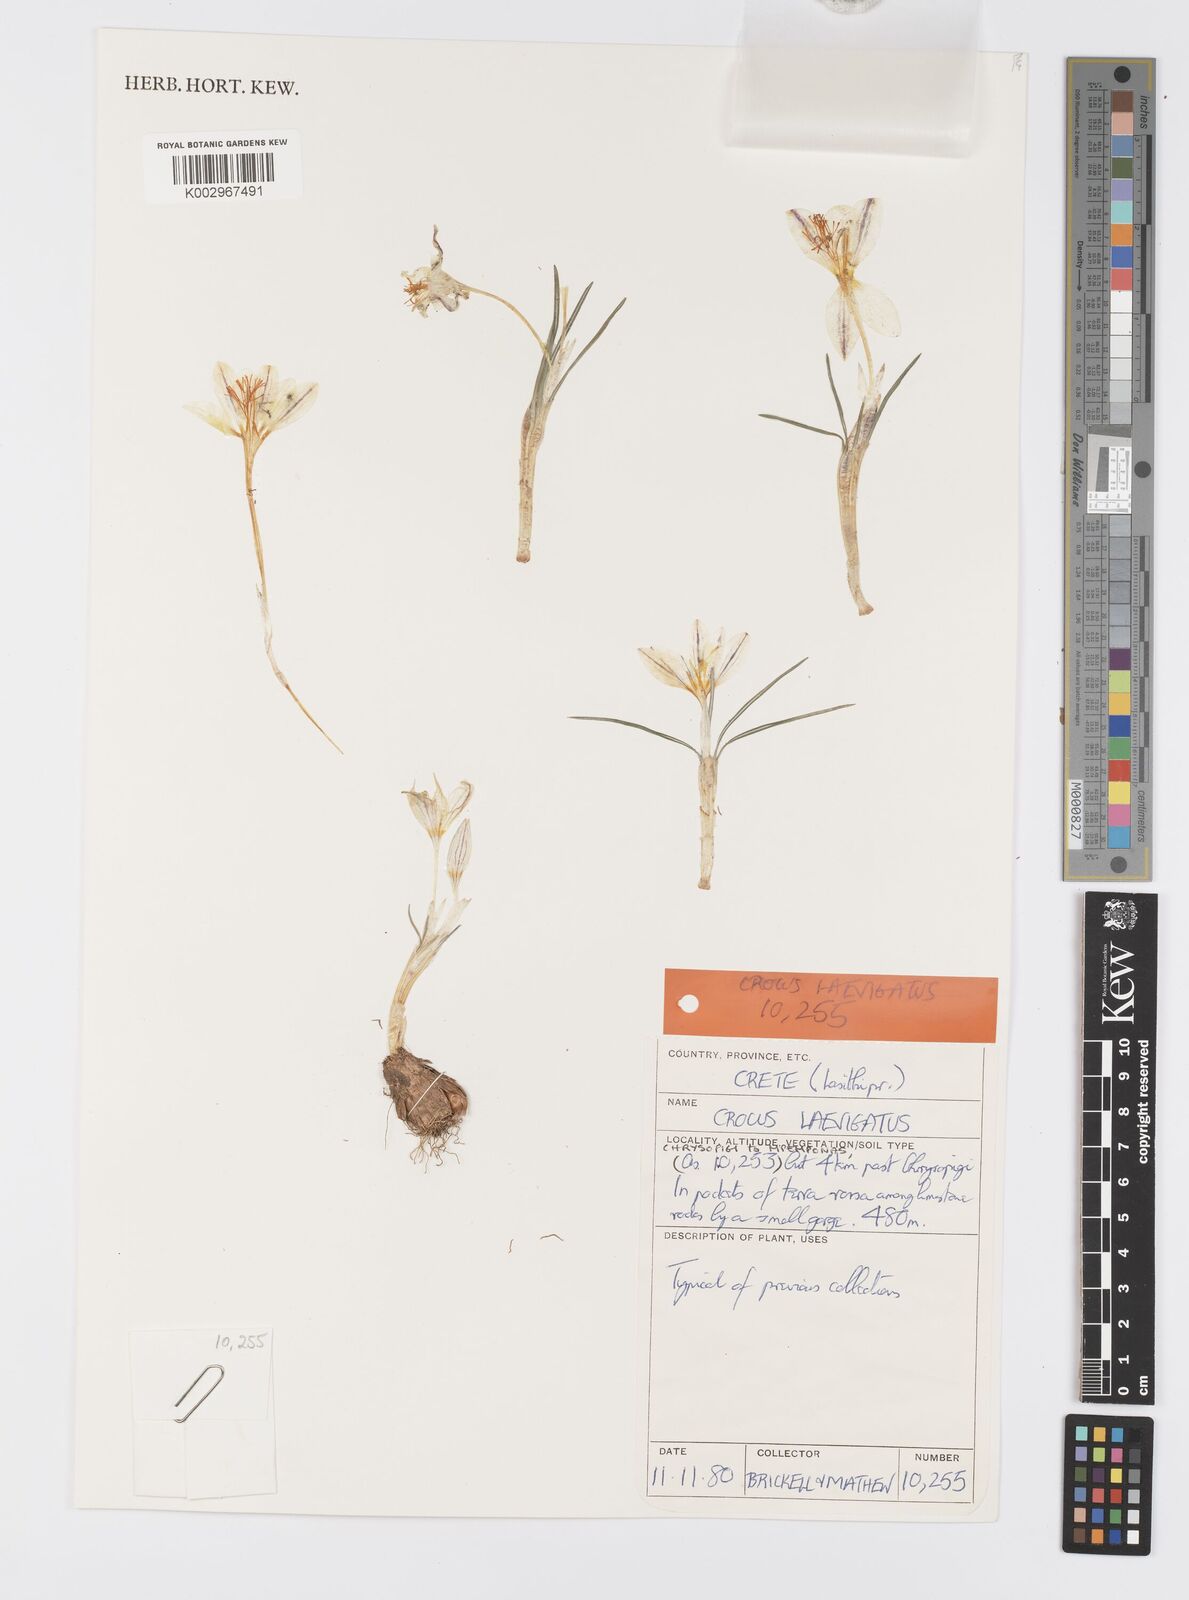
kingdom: Plantae
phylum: Tracheophyta
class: Liliopsida
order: Asparagales
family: Iridaceae
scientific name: Iridaceae
